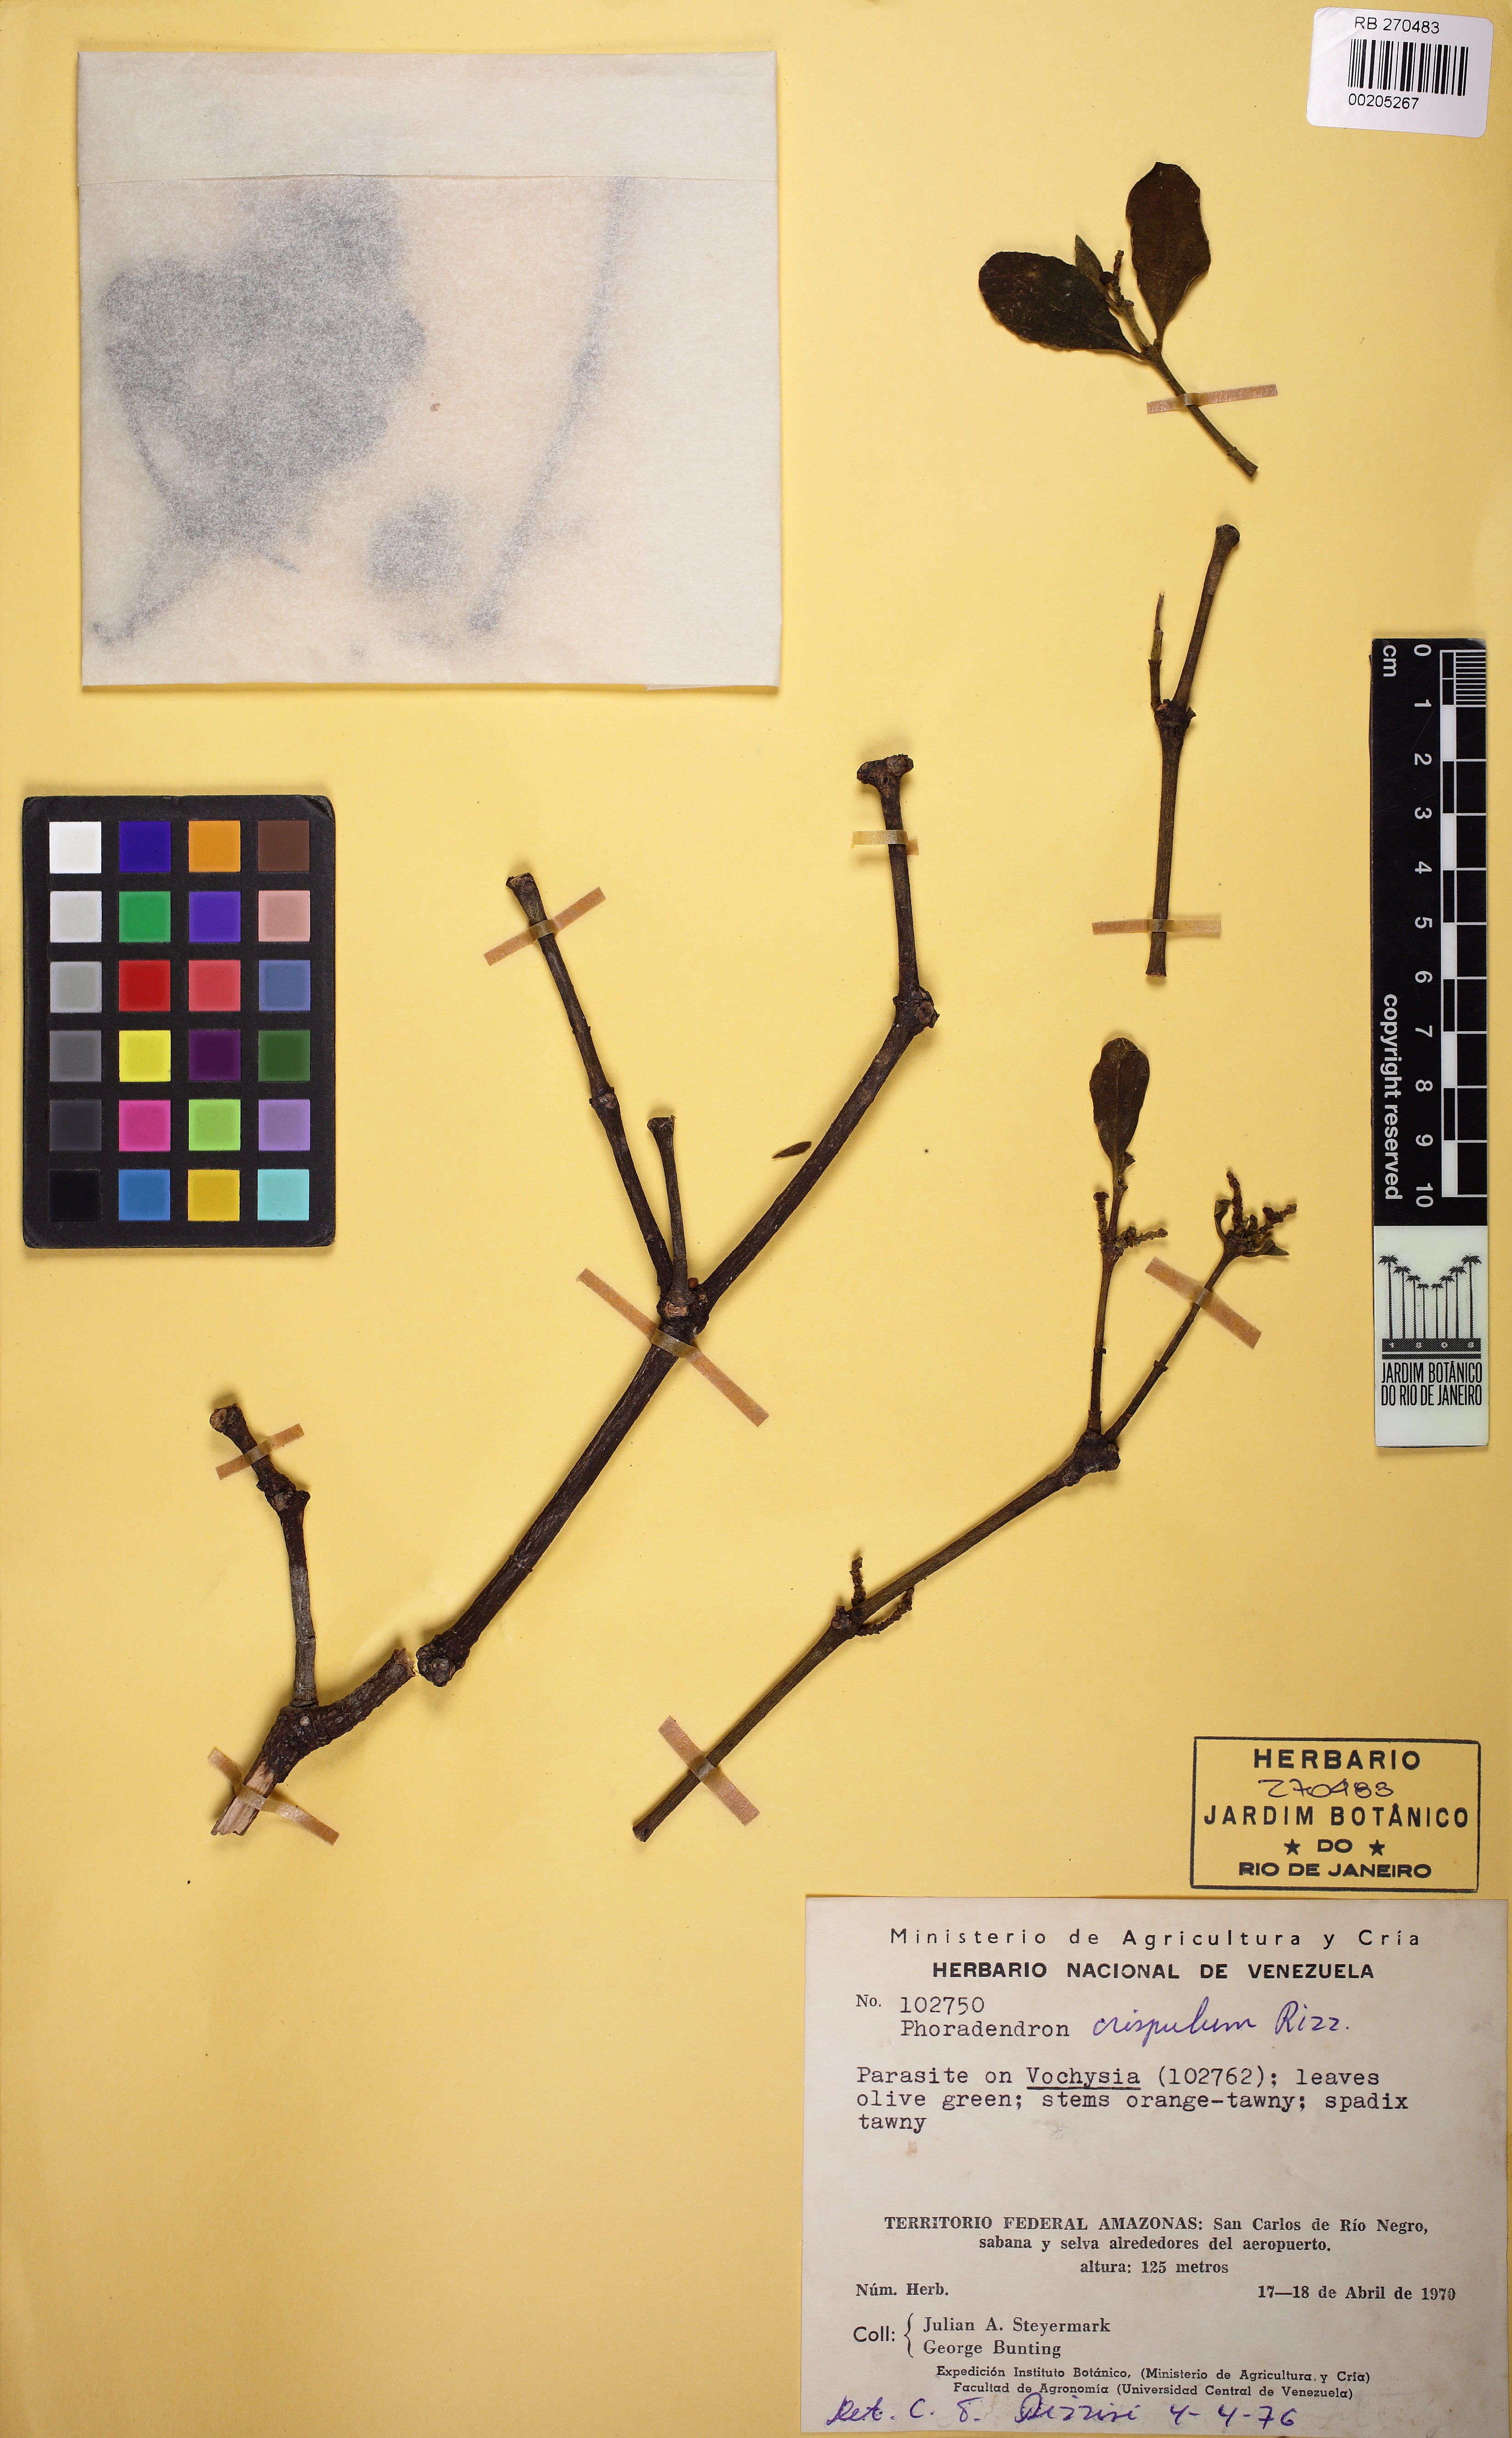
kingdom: Plantae
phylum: Tracheophyta
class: Magnoliopsida
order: Santalales
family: Viscaceae
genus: Dendrophthora
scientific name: Dendrophthora crispula
